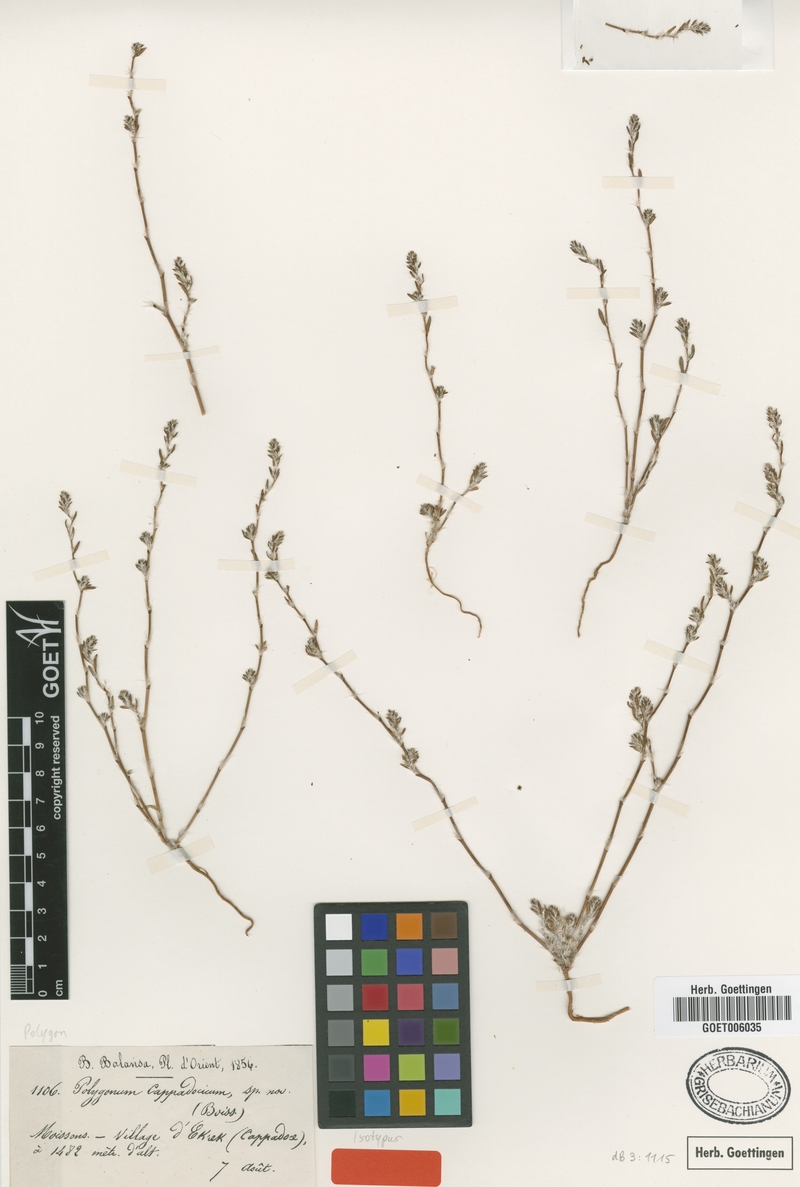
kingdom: Plantae
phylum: Tracheophyta
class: Magnoliopsida
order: Caryophyllales
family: Polygonaceae
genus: Polygonum
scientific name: Polygonum cappadocicum
